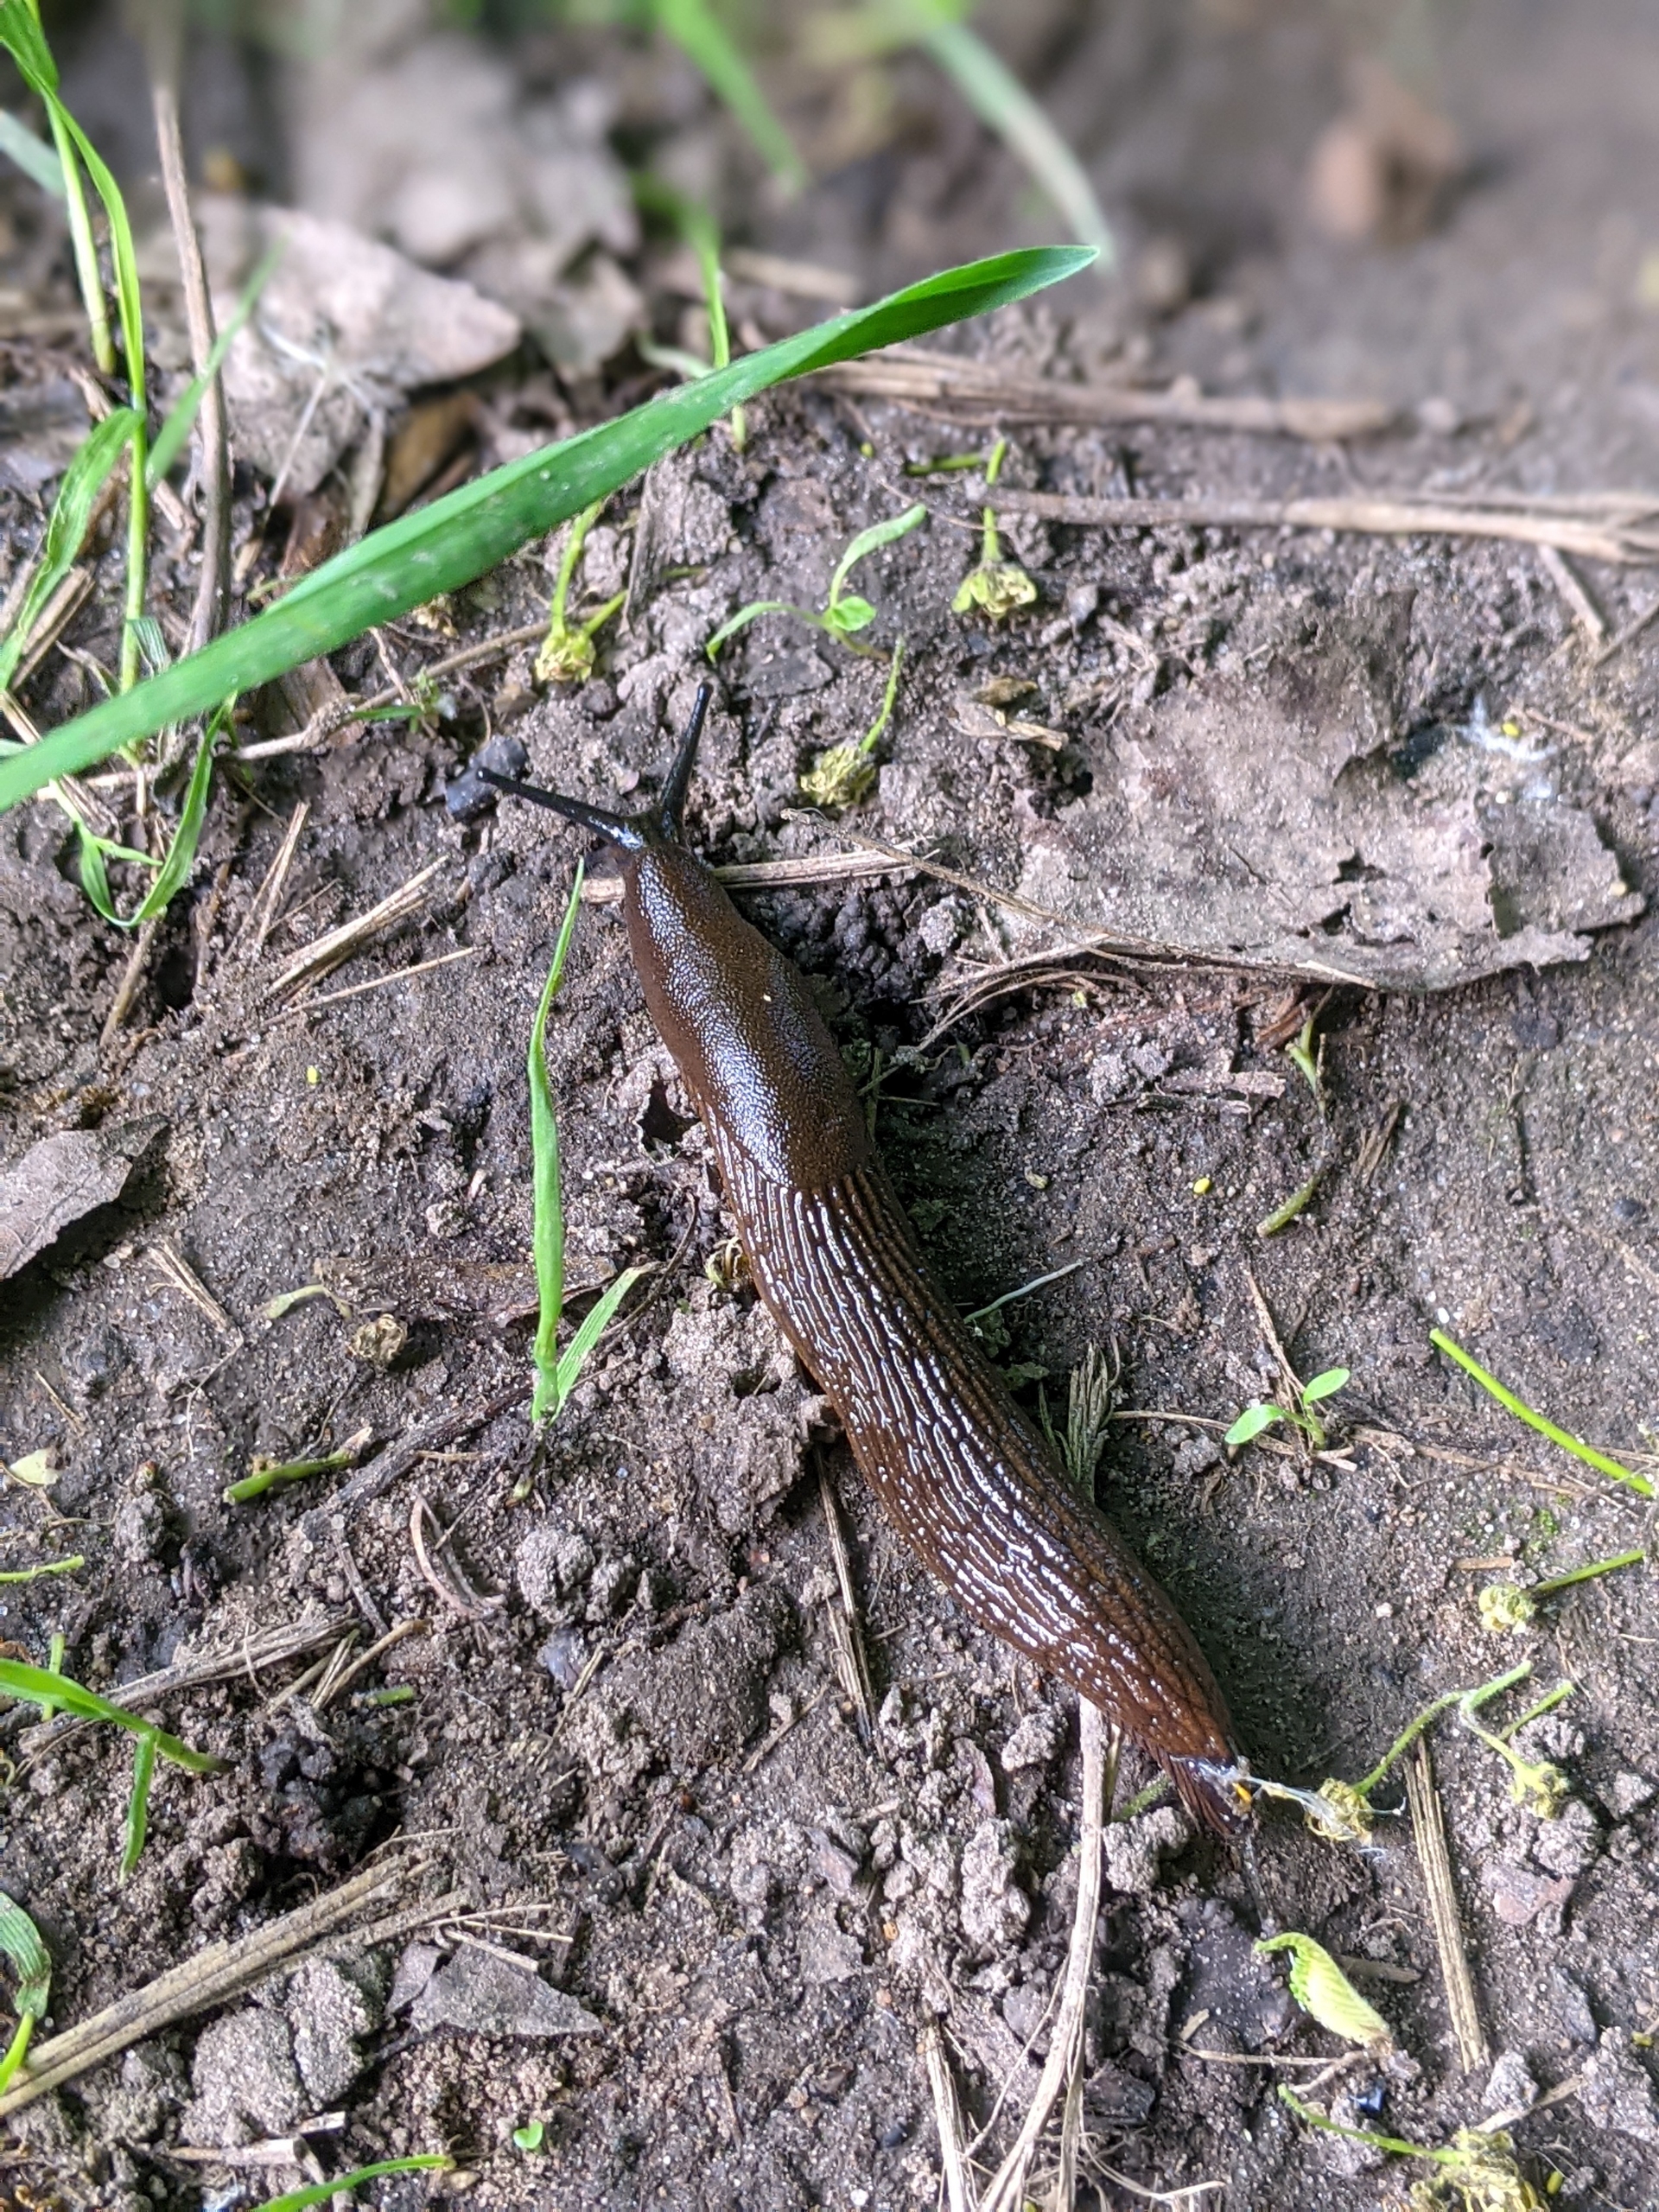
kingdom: Animalia
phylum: Mollusca
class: Gastropoda
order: Stylommatophora
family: Arionidae
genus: Arion
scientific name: Arion vulgaris
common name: Iberisk skovsnegl
